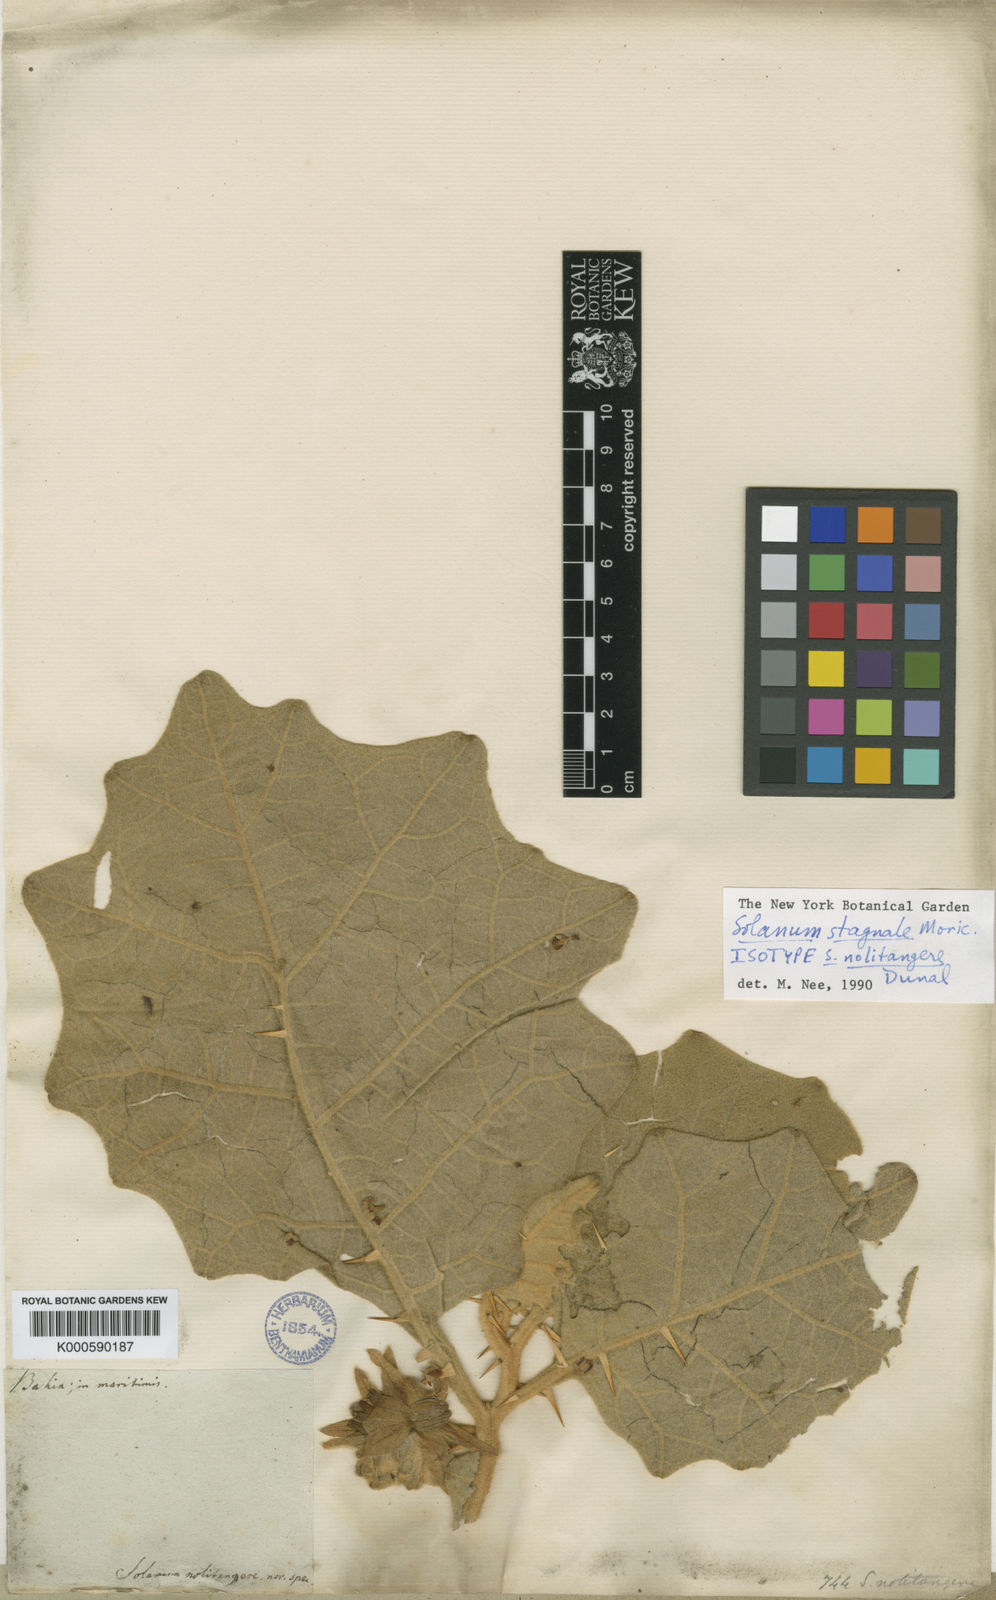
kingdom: Plantae
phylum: Tracheophyta
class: Magnoliopsida
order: Solanales
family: Solanaceae
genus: Solanum
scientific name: Solanum stagnale
